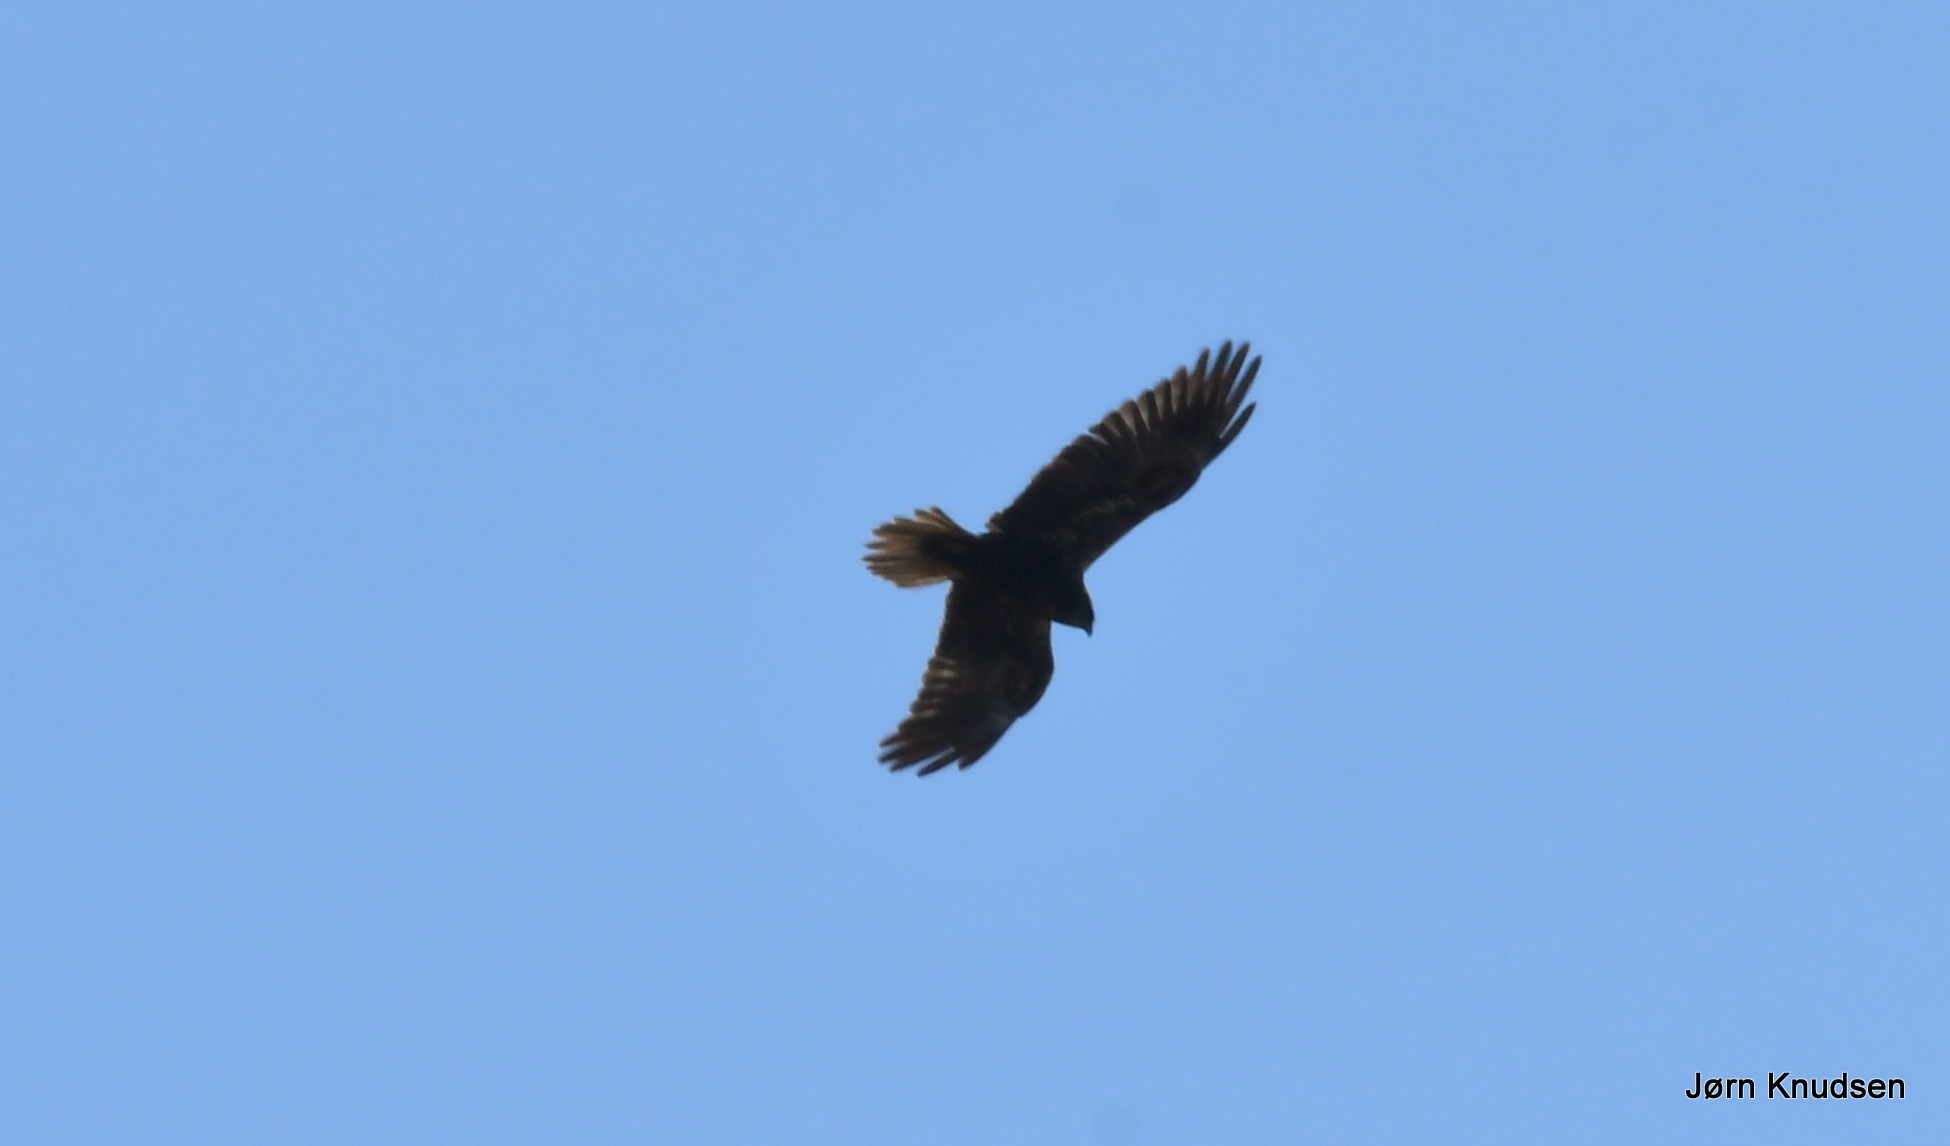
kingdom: Animalia
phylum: Chordata
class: Aves
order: Accipitriformes
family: Accipitridae
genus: Buteo
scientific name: Buteo buteo
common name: Musvåge
